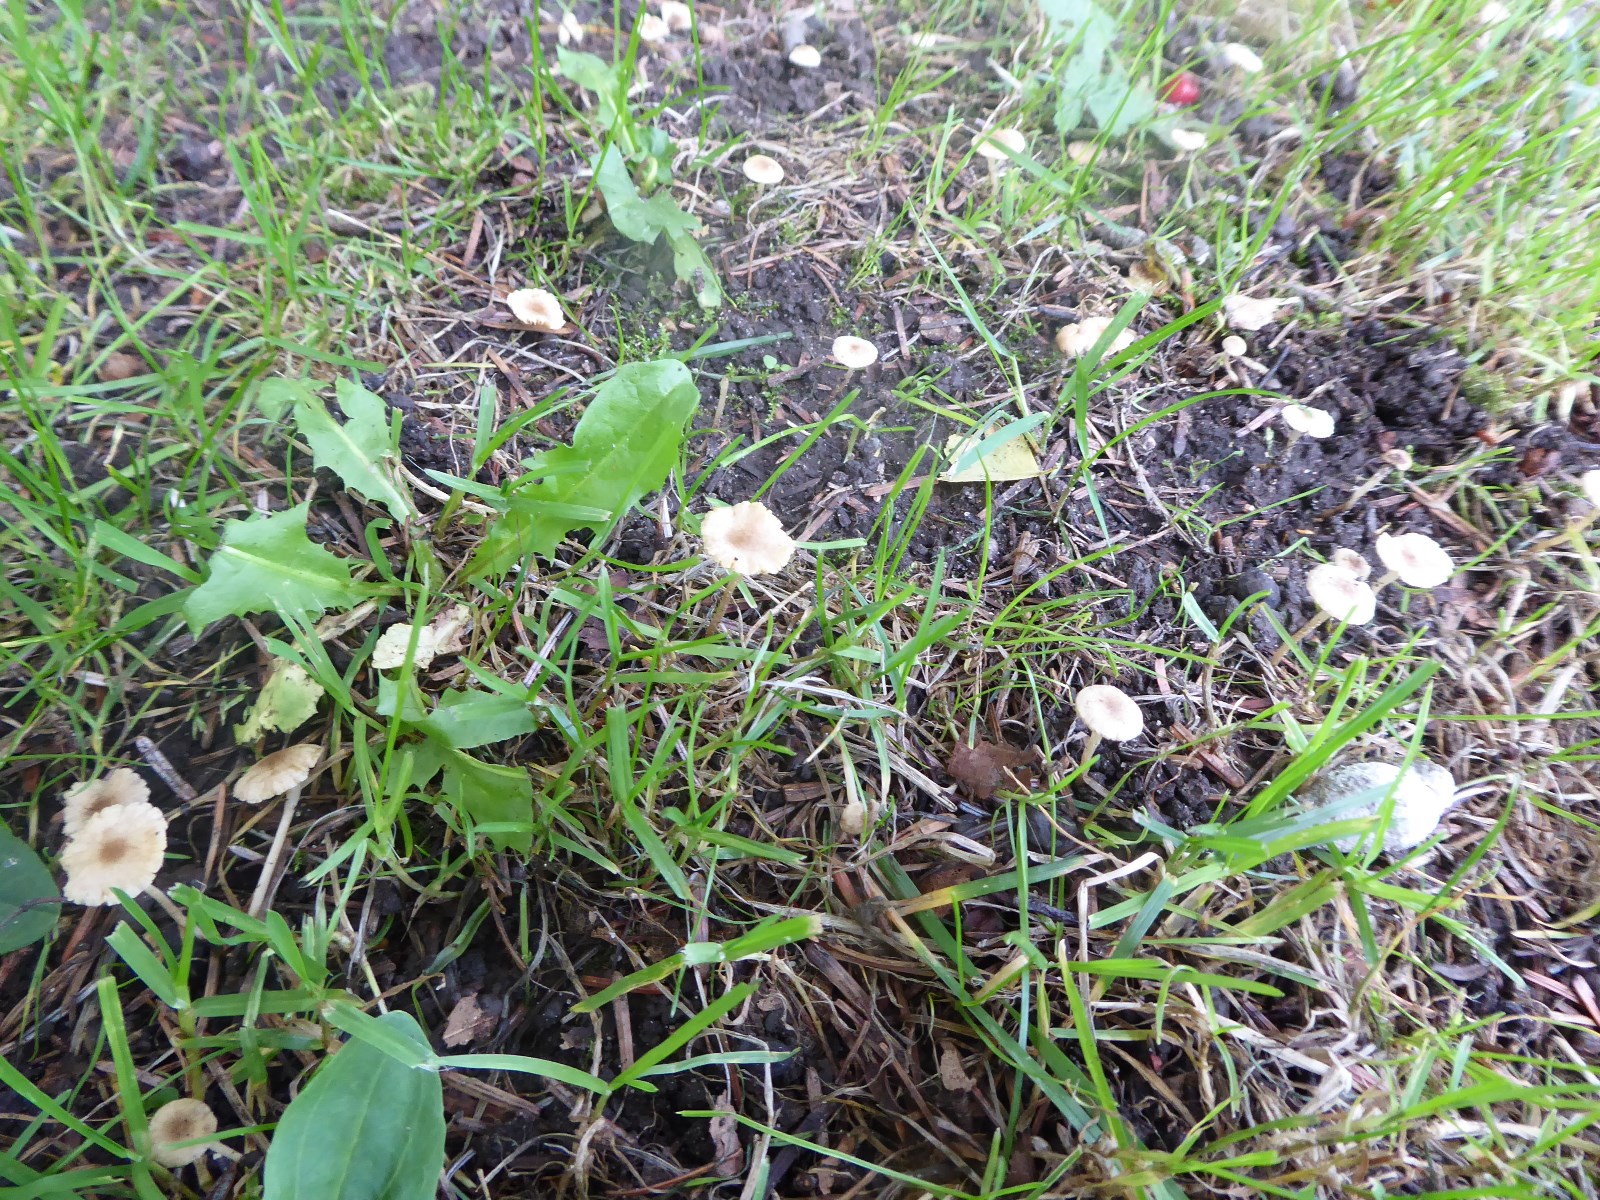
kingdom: Fungi
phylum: Basidiomycota
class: Agaricomycetes
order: Agaricales
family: Tubariaceae
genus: Tubaria
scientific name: Tubaria dispersa
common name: tjørne-fnughat
